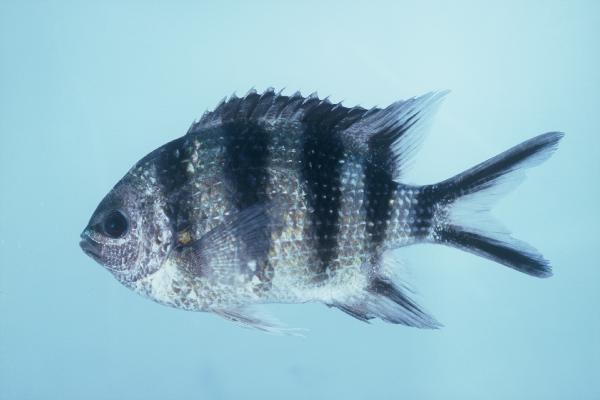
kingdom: Animalia
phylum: Chordata
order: Perciformes
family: Pomacentridae
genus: Abudefduf
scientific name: Abudefduf sexfasciatus
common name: Scissortail sergeant
